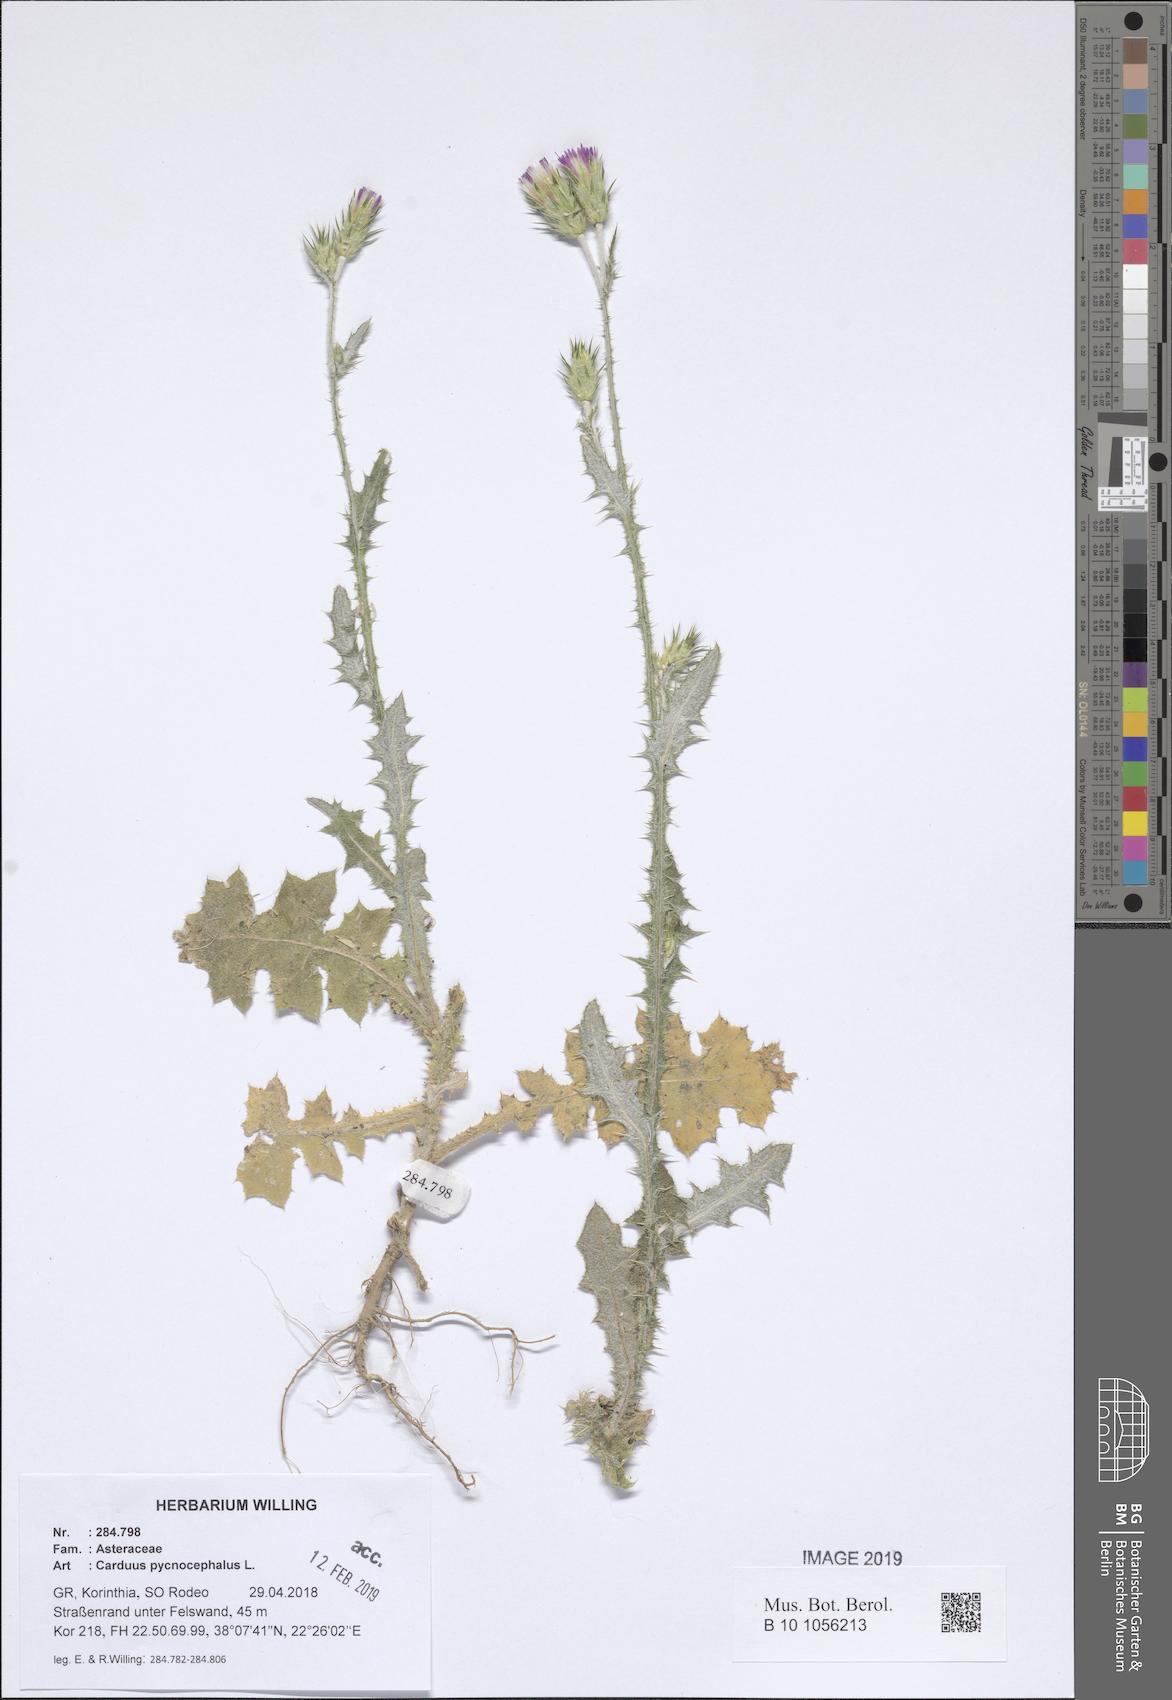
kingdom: Plantae
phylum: Tracheophyta
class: Magnoliopsida
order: Asterales
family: Asteraceae
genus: Carduus
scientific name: Carduus pycnocephalus
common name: Plymouth thistle
